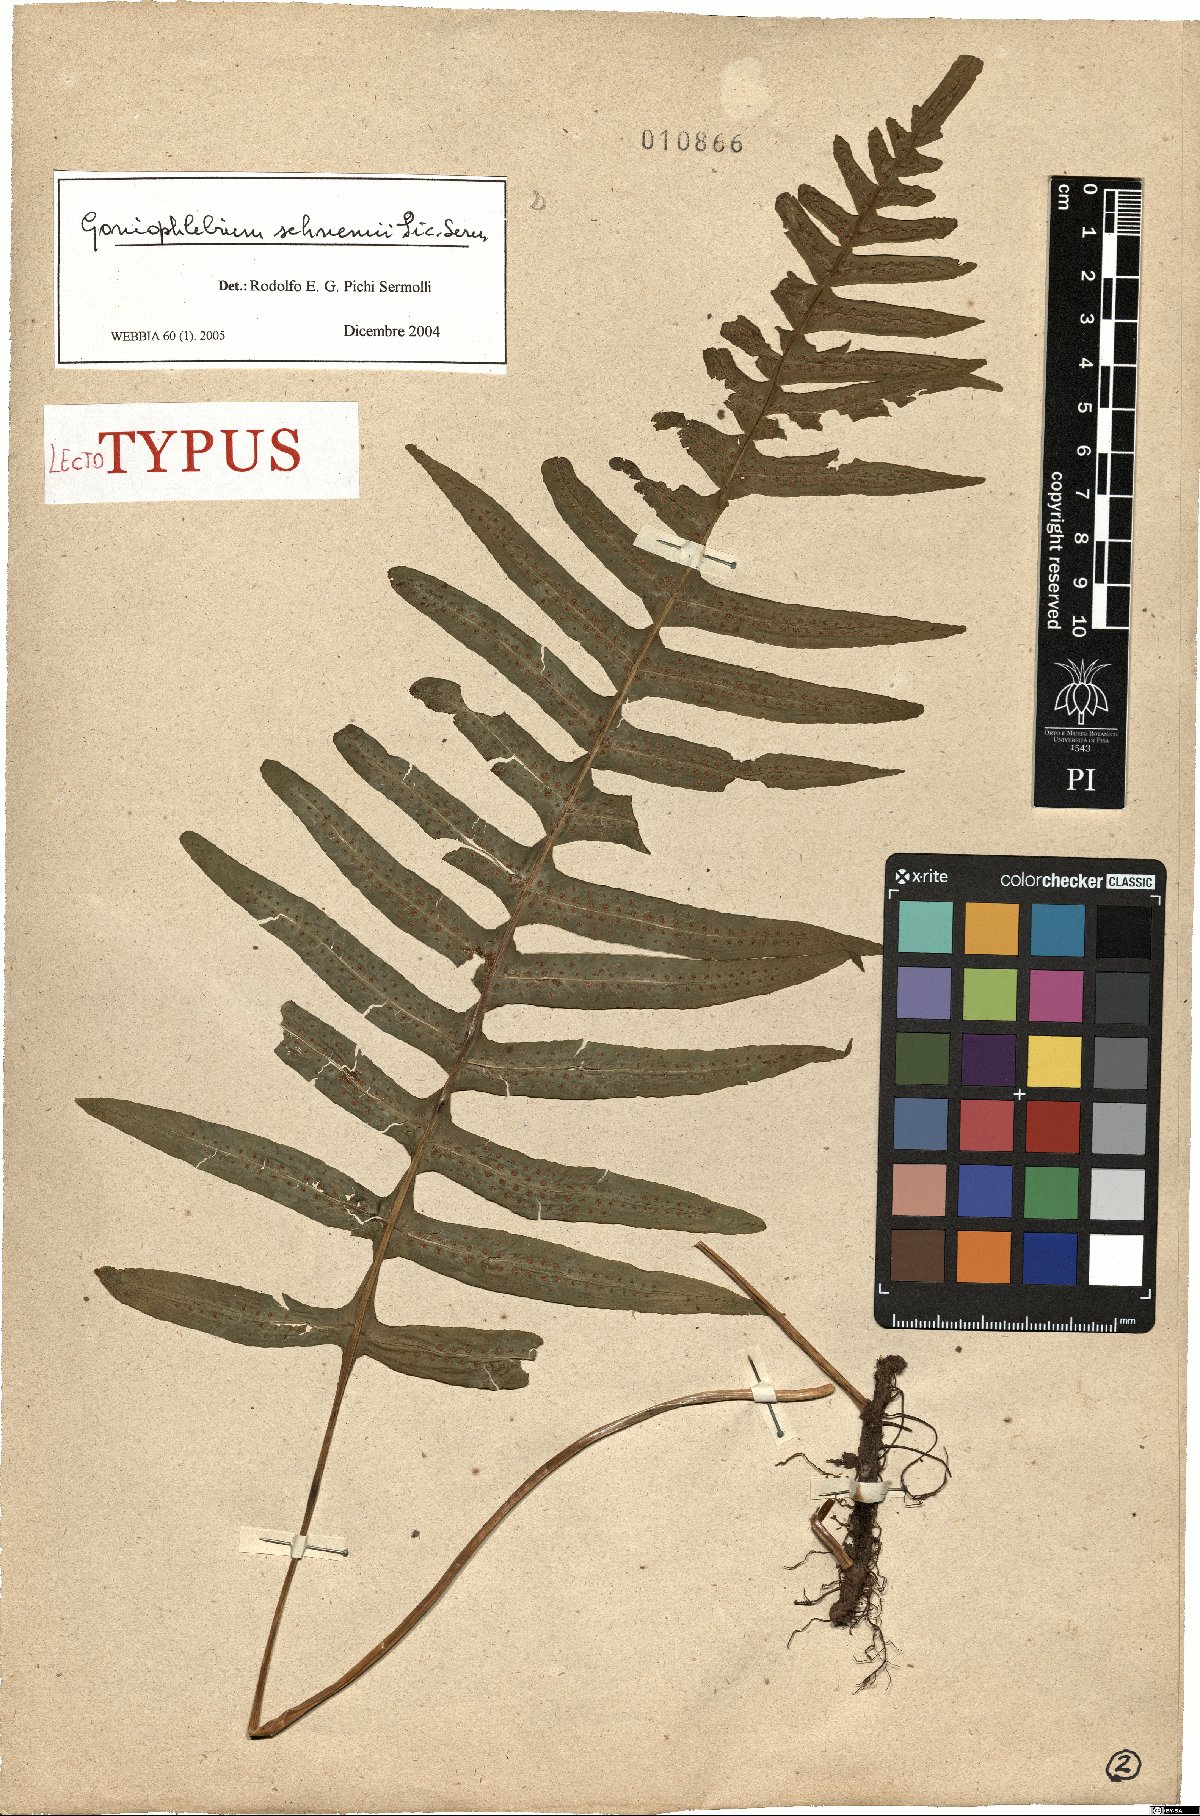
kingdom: Plantae
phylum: Tracheophyta
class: Polypodiopsida
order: Polypodiales
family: Polypodiaceae
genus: Serpocaulon
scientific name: Serpocaulon laetum
